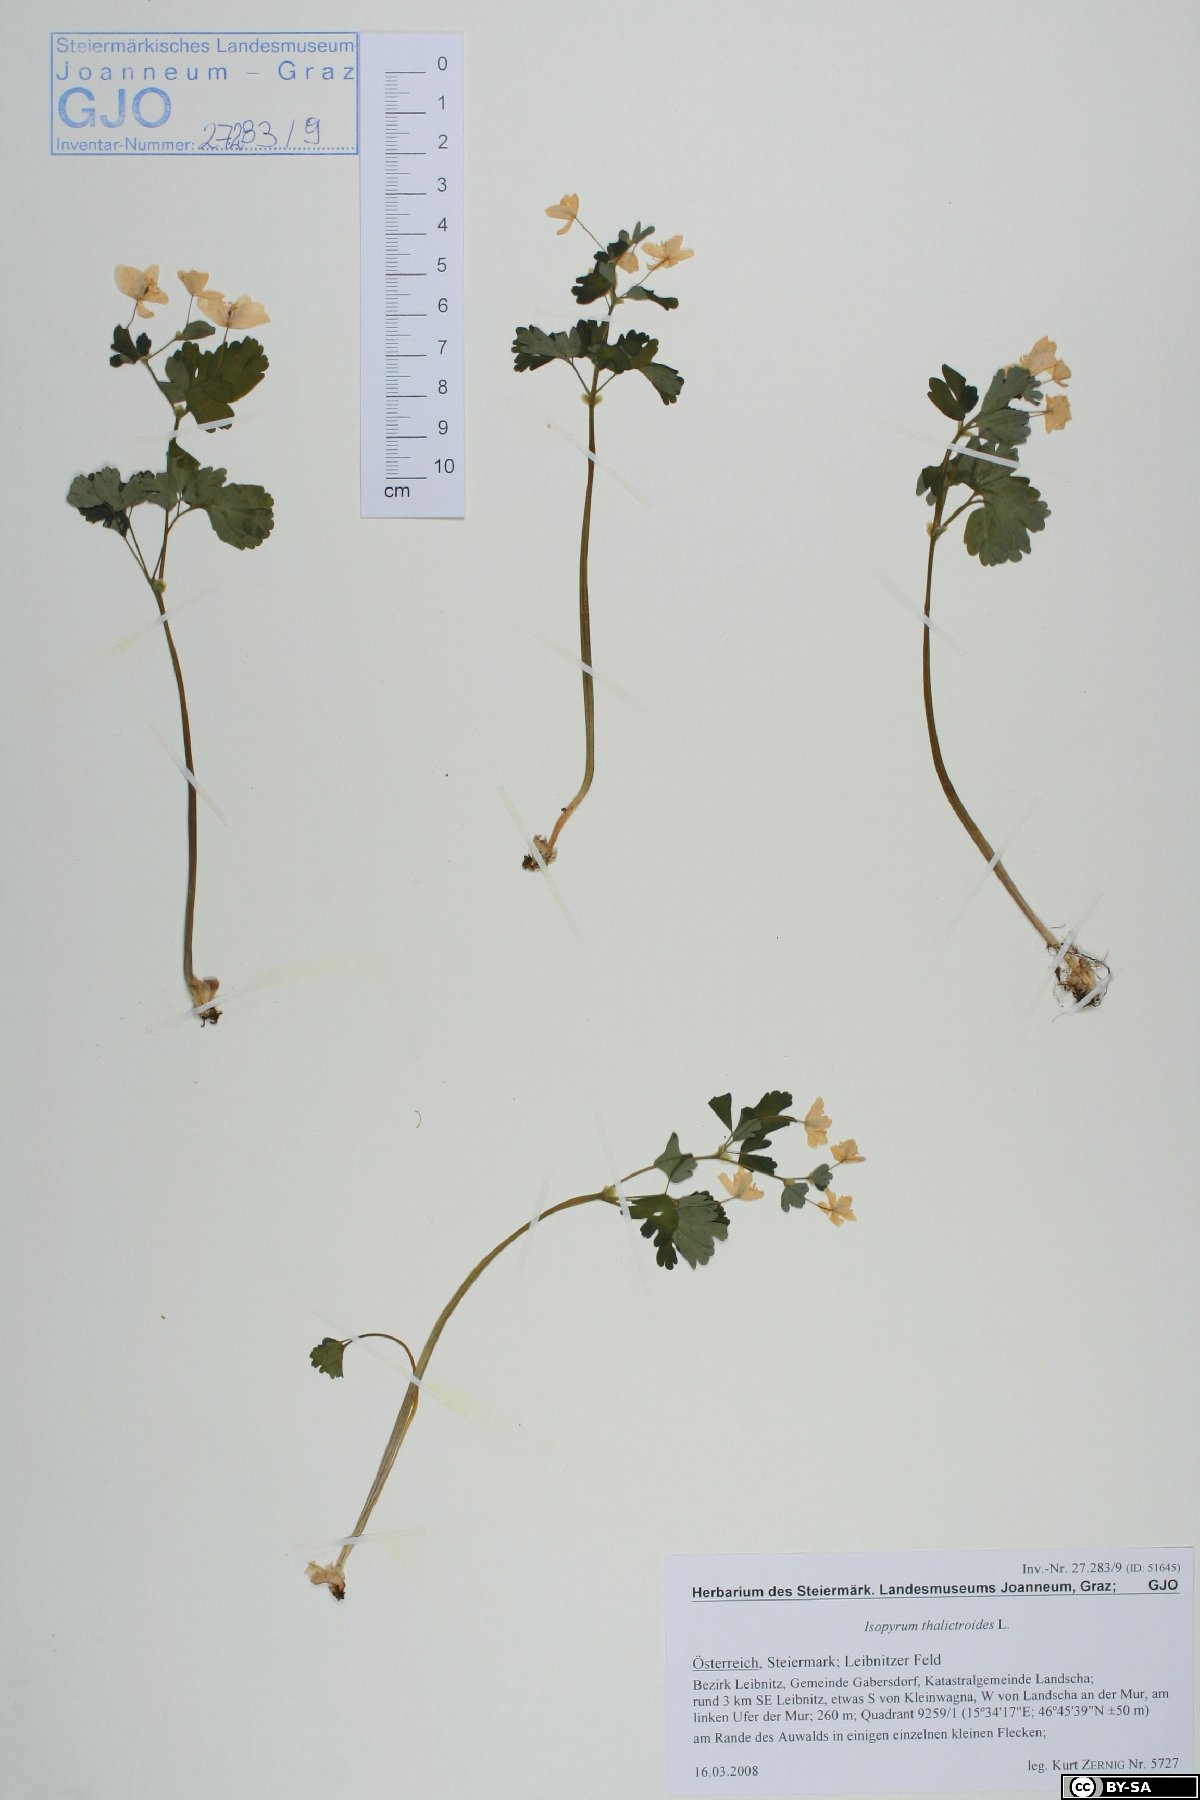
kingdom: Plantae
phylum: Tracheophyta
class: Magnoliopsida
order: Ranunculales
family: Ranunculaceae
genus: Isopyrum
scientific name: Isopyrum thalictroides
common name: Isopyrum
